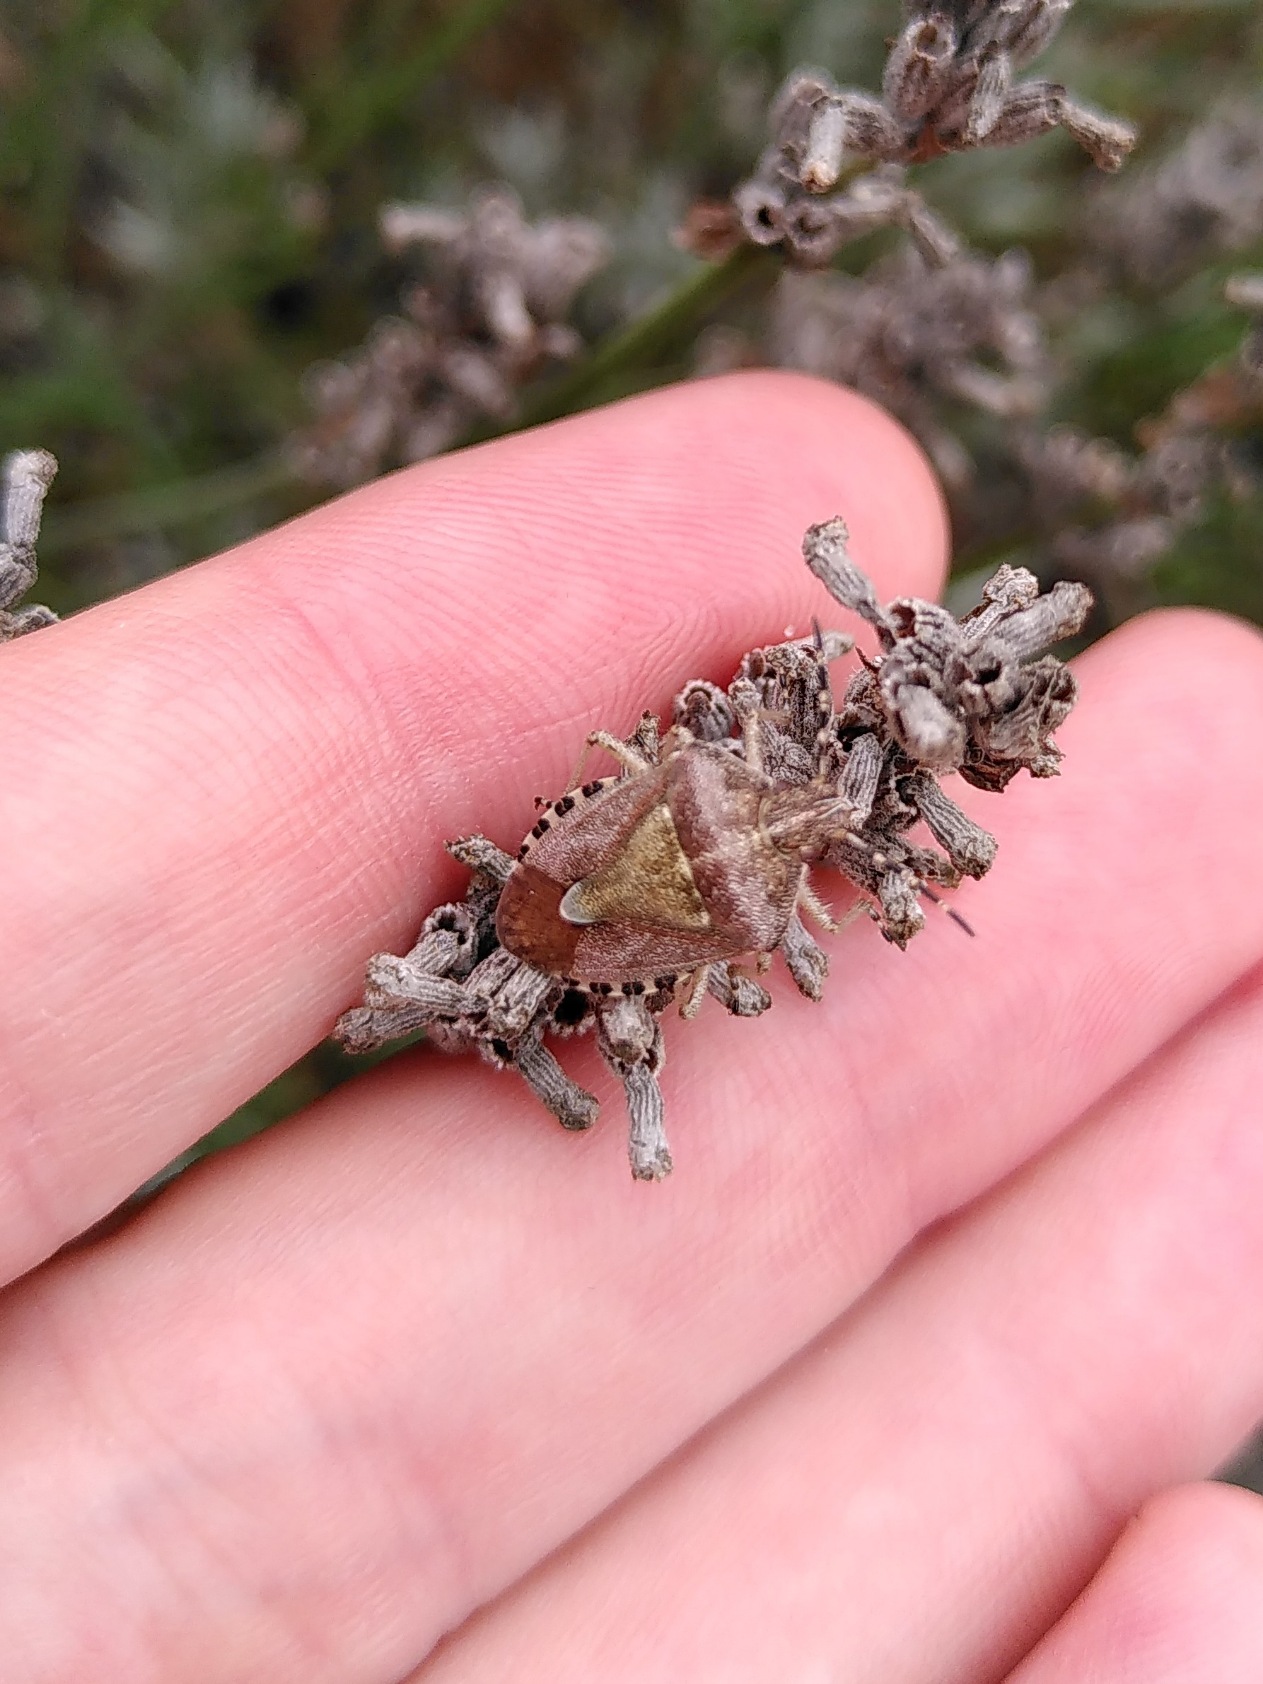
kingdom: Animalia
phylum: Arthropoda
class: Insecta
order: Hemiptera
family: Pentatomidae
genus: Dolycoris
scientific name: Dolycoris baccarum
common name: Almindelig bærtæge
